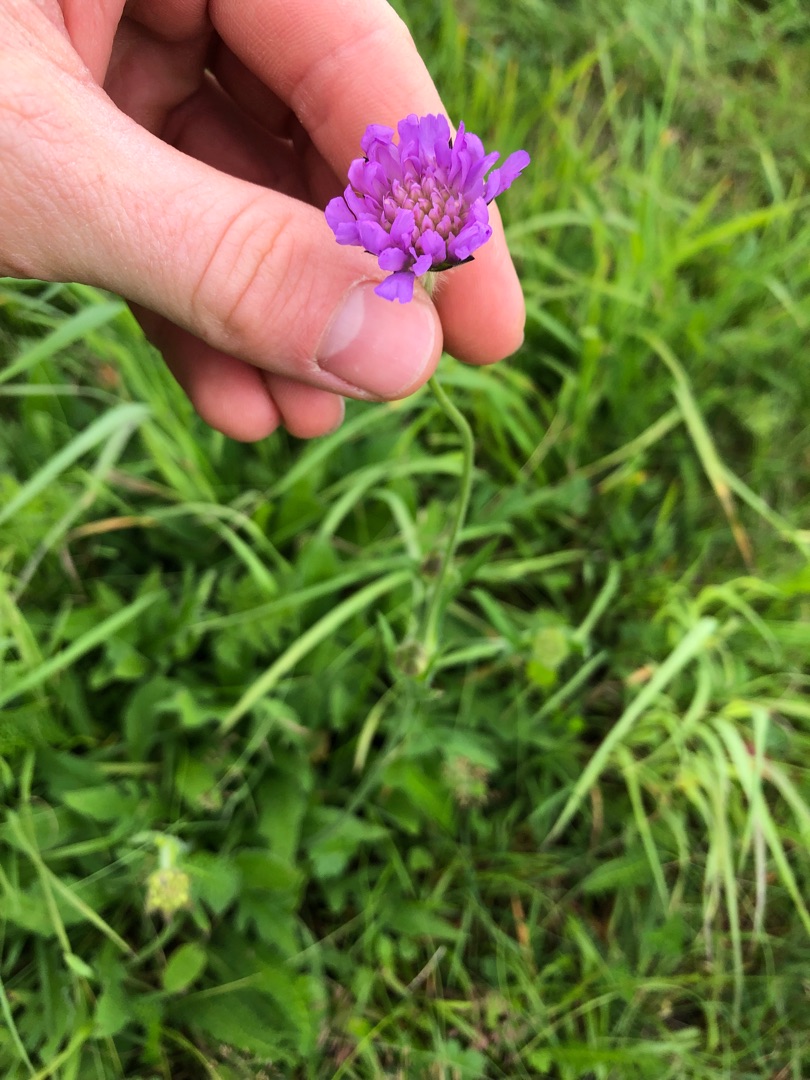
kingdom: Plantae
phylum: Tracheophyta
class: Magnoliopsida
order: Dipsacales
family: Caprifoliaceae
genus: Knautia
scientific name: Knautia arvensis
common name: Blåhat
